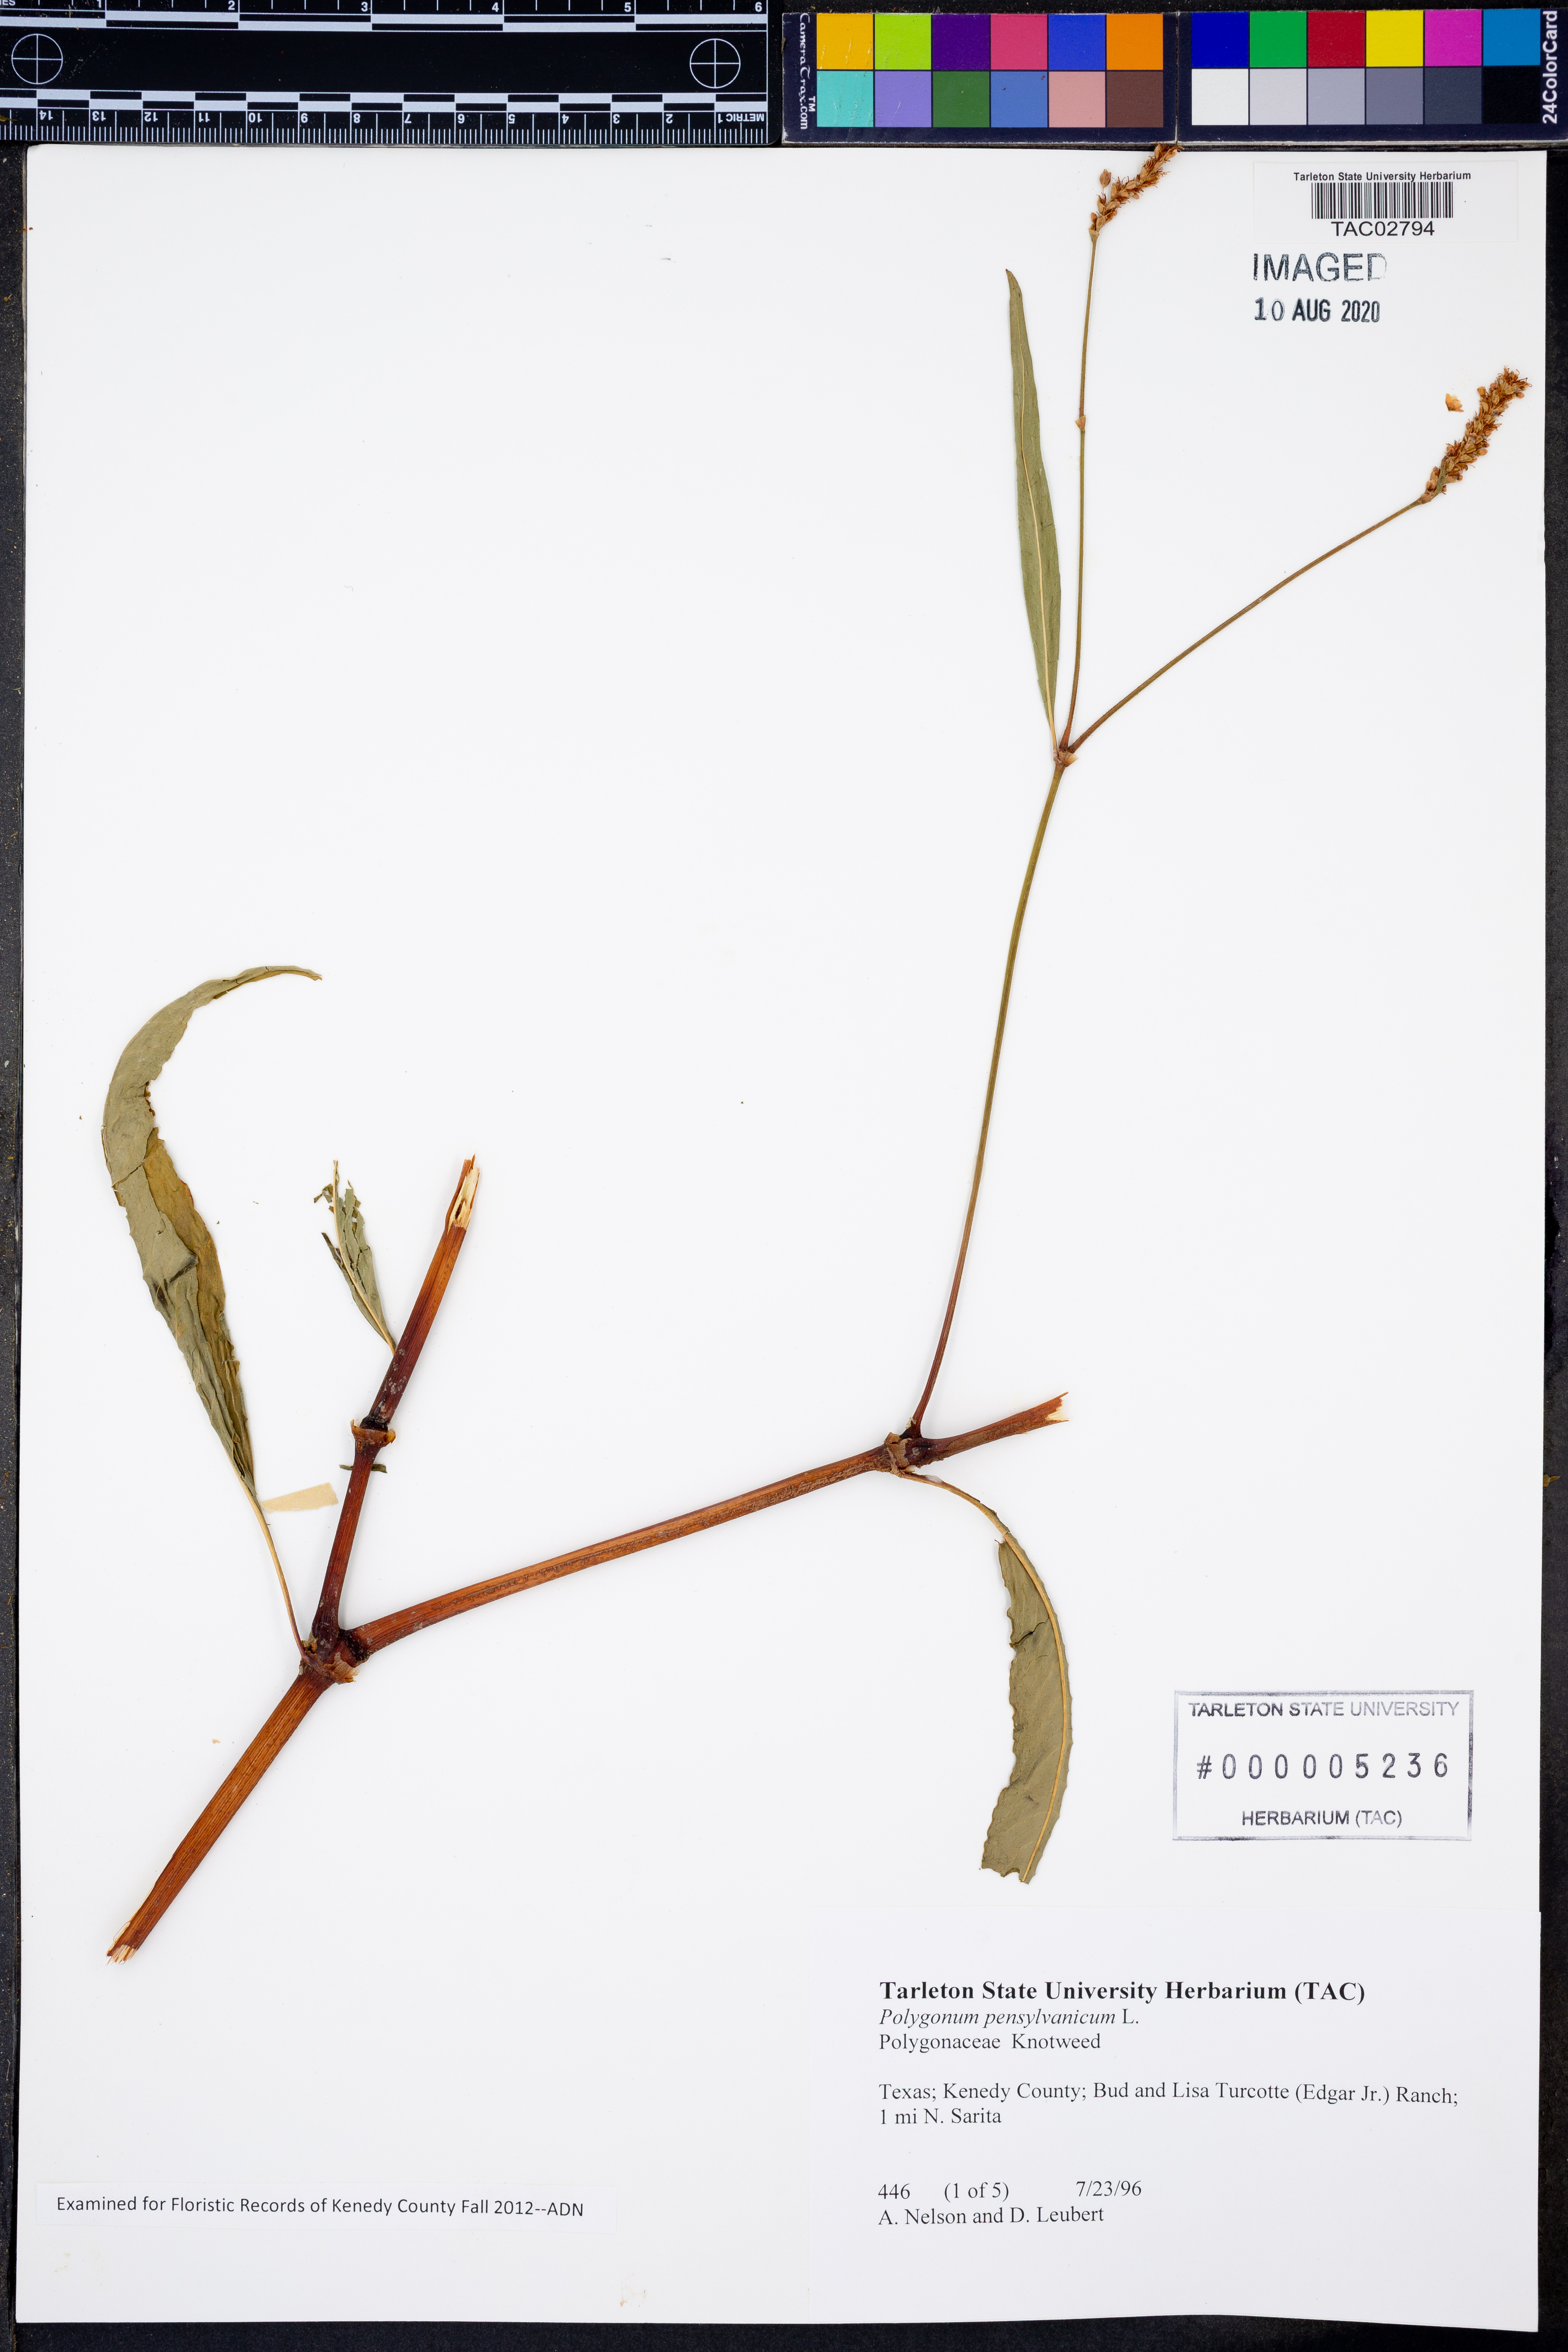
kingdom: Plantae
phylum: Tracheophyta
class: Magnoliopsida
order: Caryophyllales
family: Polygonaceae
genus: Persicaria
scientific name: Persicaria pensylvanica
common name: Pinkweed
